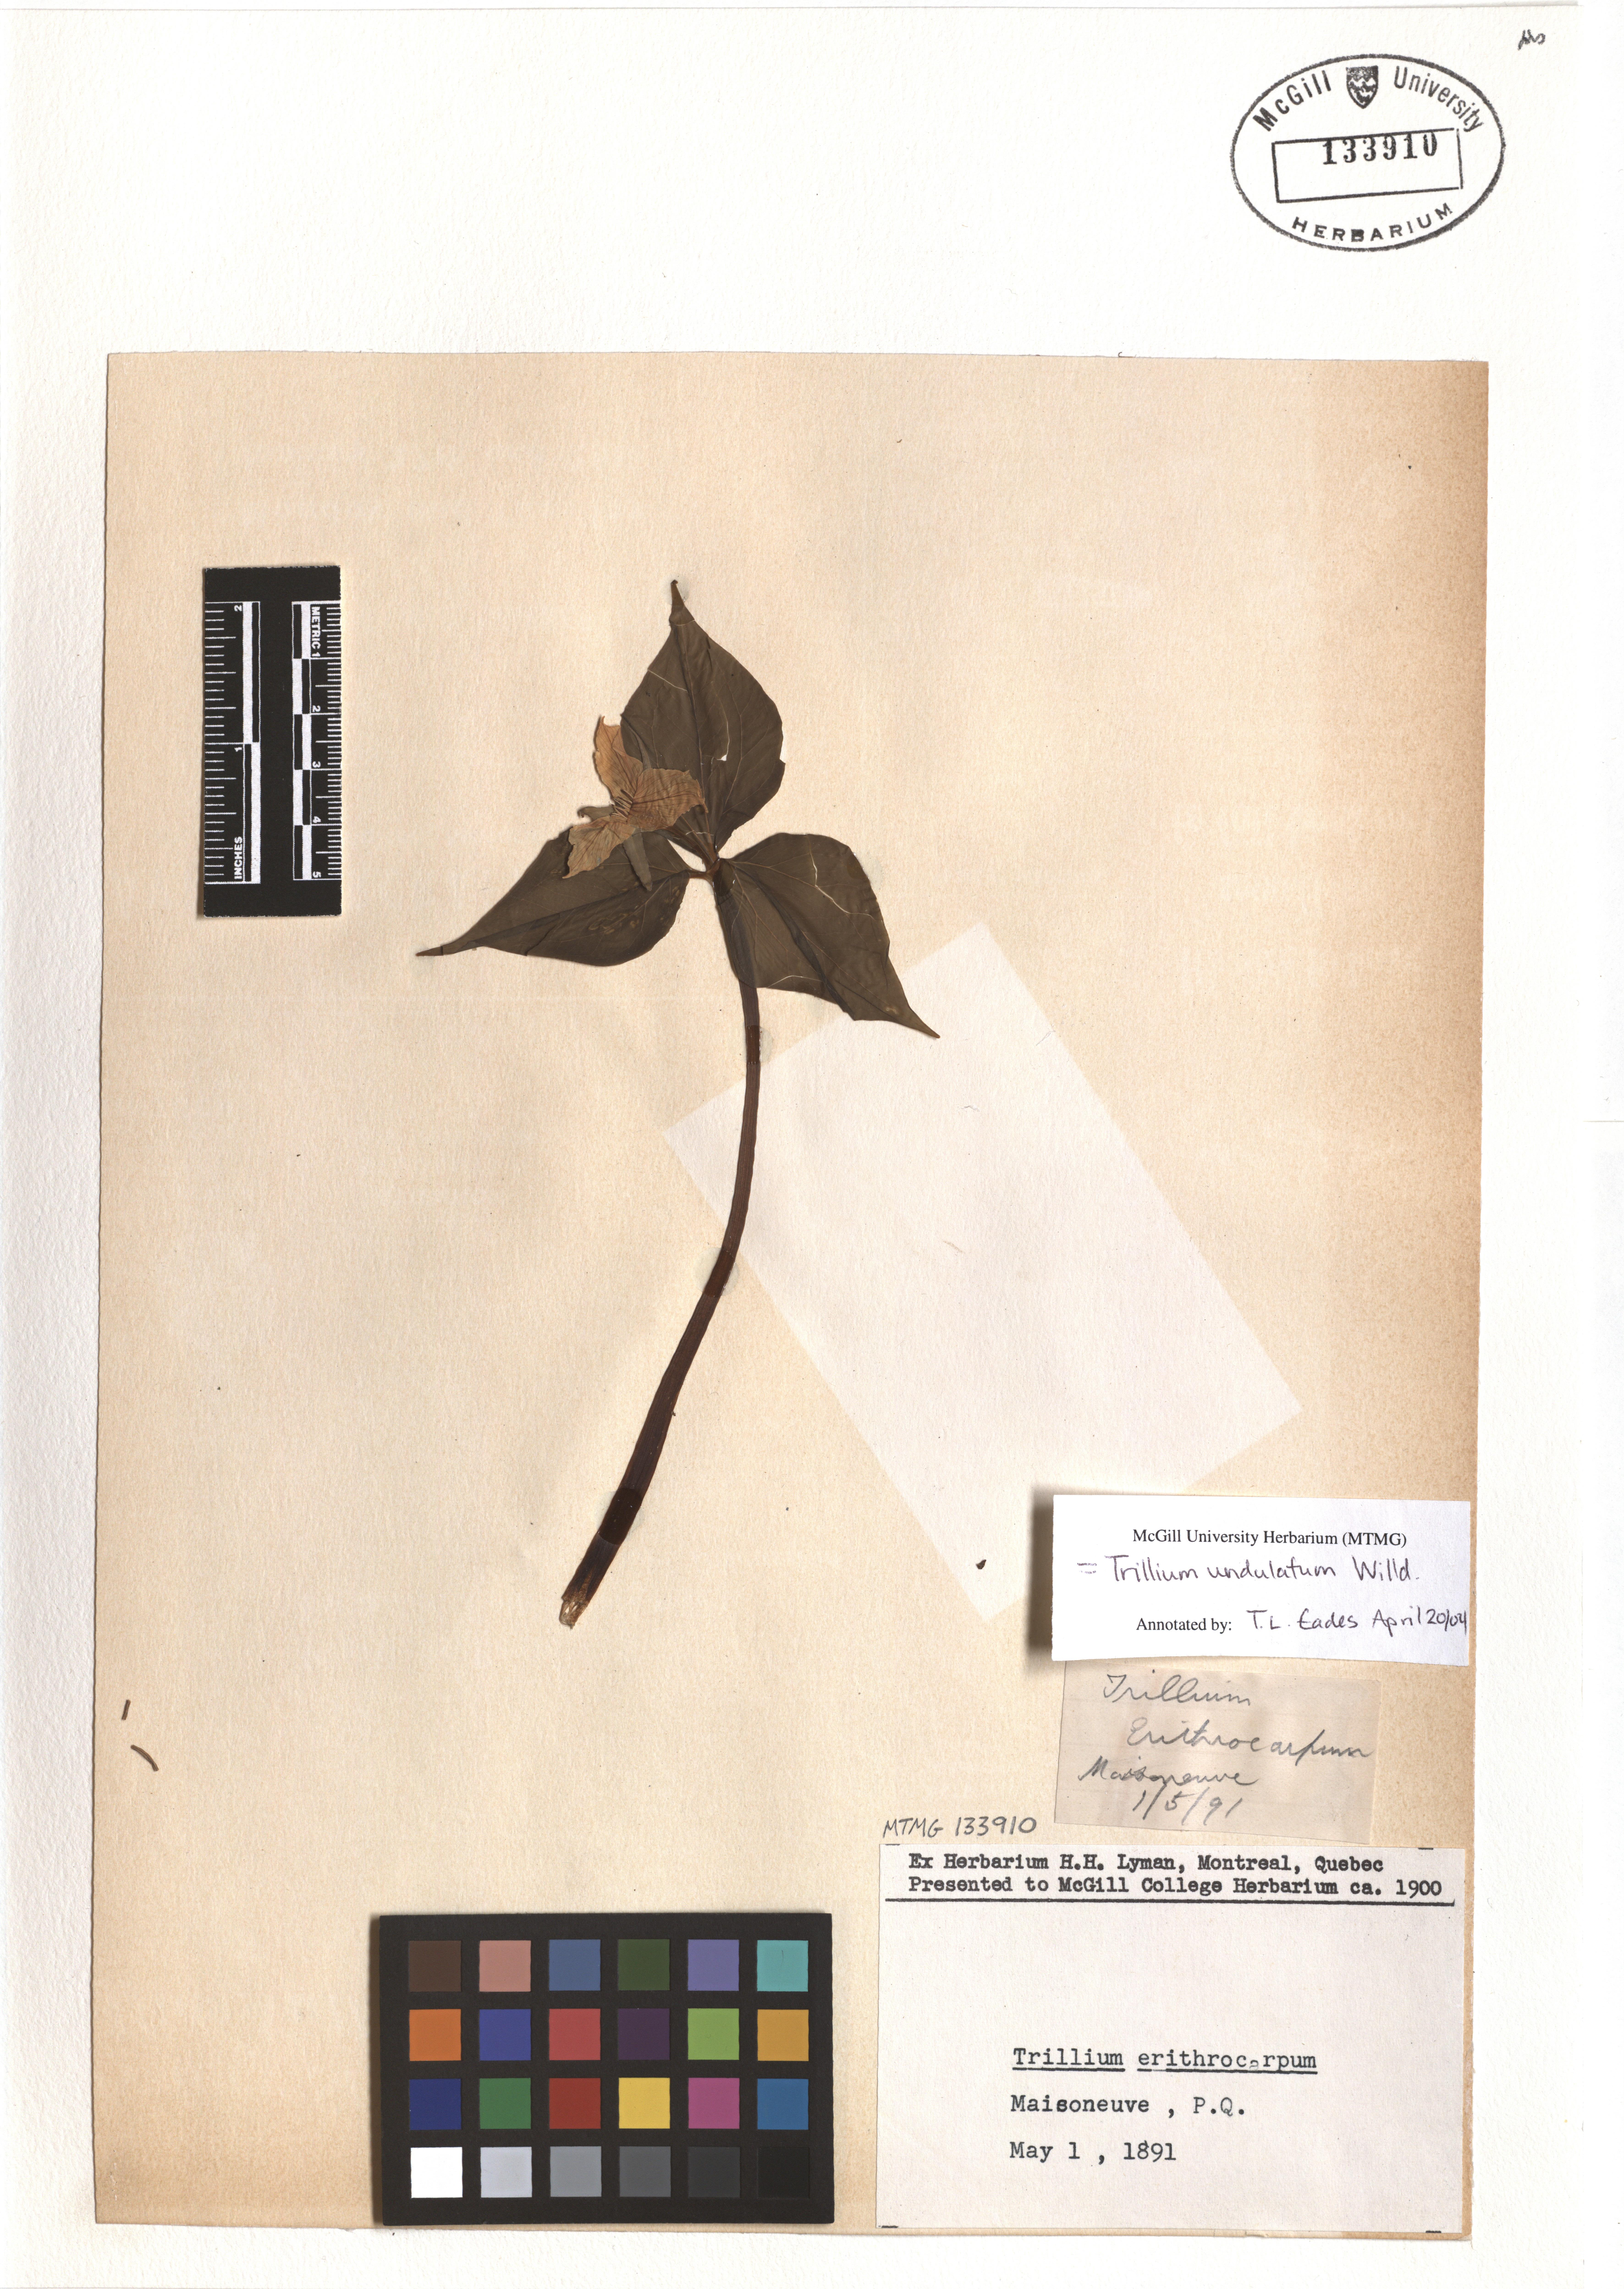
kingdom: Plantae
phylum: Tracheophyta
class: Liliopsida
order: Liliales
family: Melanthiaceae
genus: Trillium
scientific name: Trillium undulatum
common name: Paint trillium
